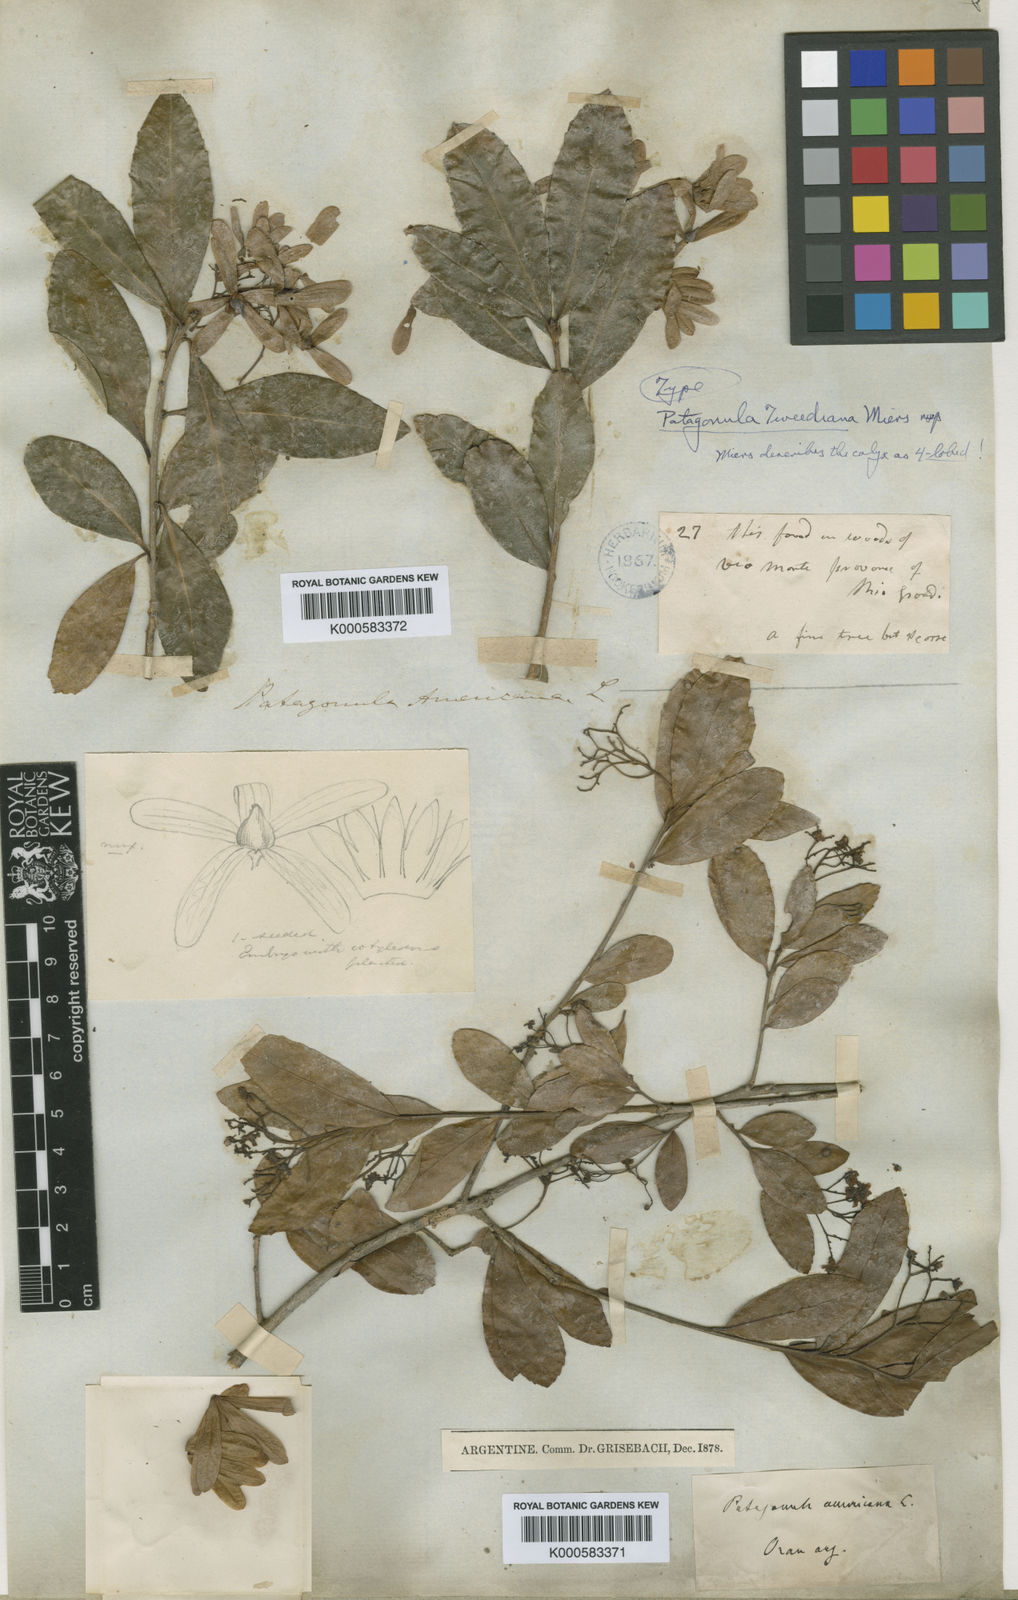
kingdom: Plantae
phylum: Tracheophyta
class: Magnoliopsida
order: Boraginales
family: Cordiaceae
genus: Cordia
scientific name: Cordia americana
